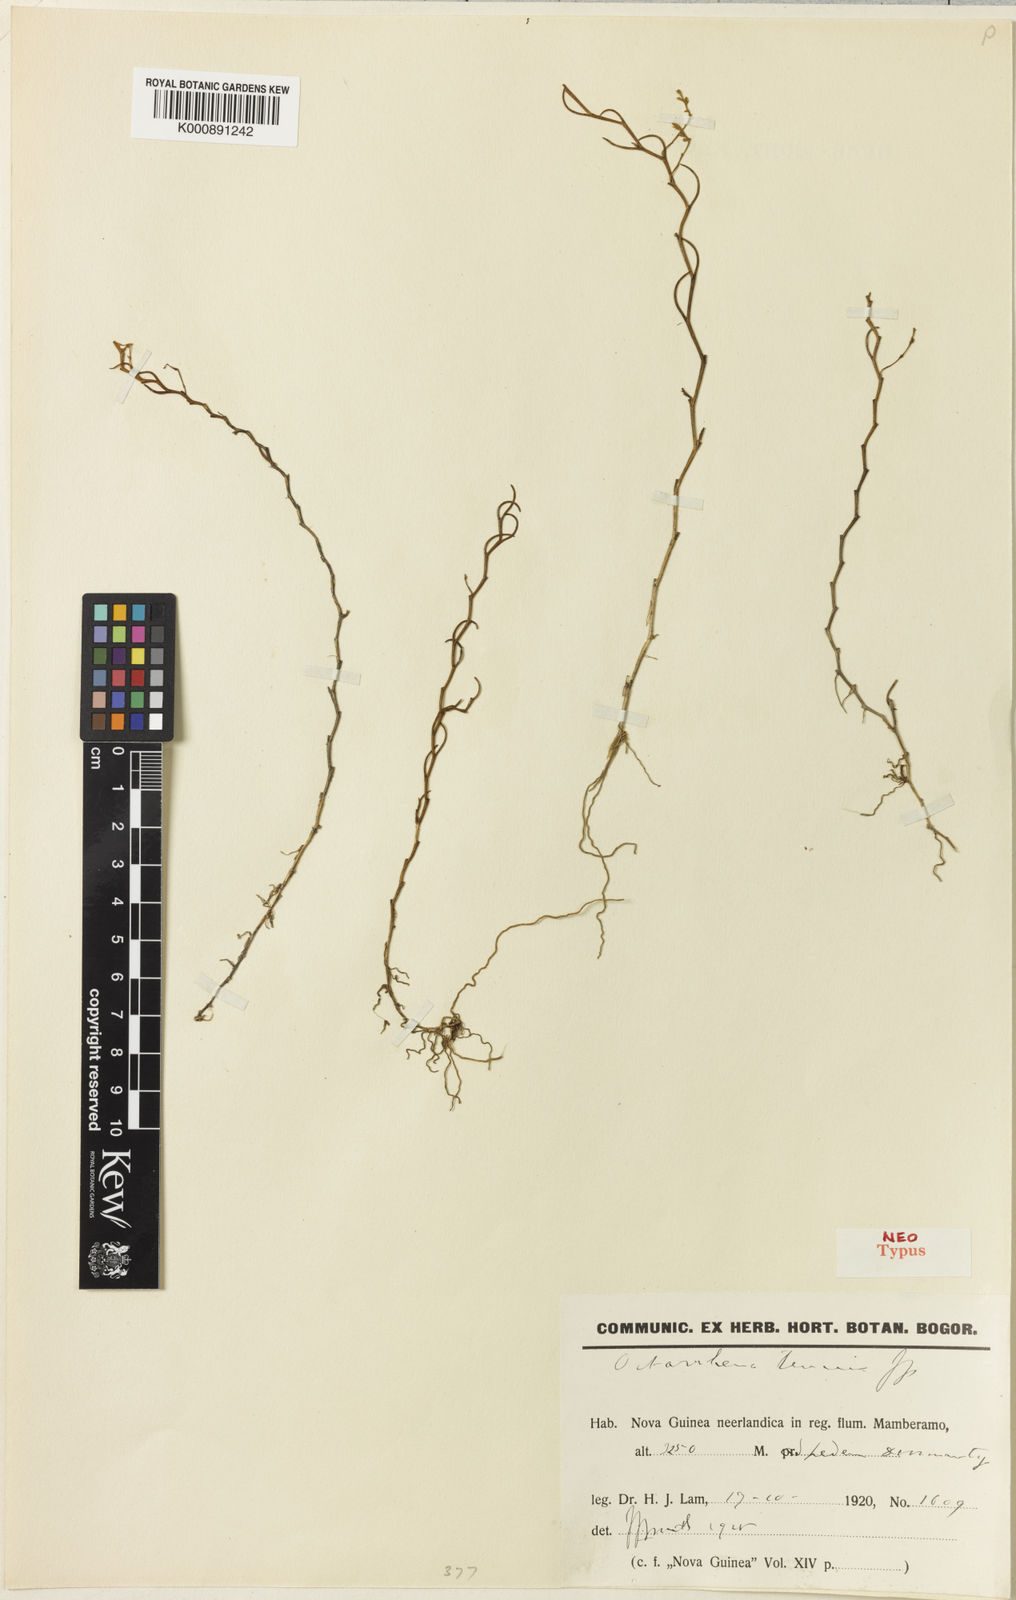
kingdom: Plantae
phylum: Tracheophyta
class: Liliopsida
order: Asparagales
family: Orchidaceae
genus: Octarrhena
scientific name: Octarrhena tenuis
